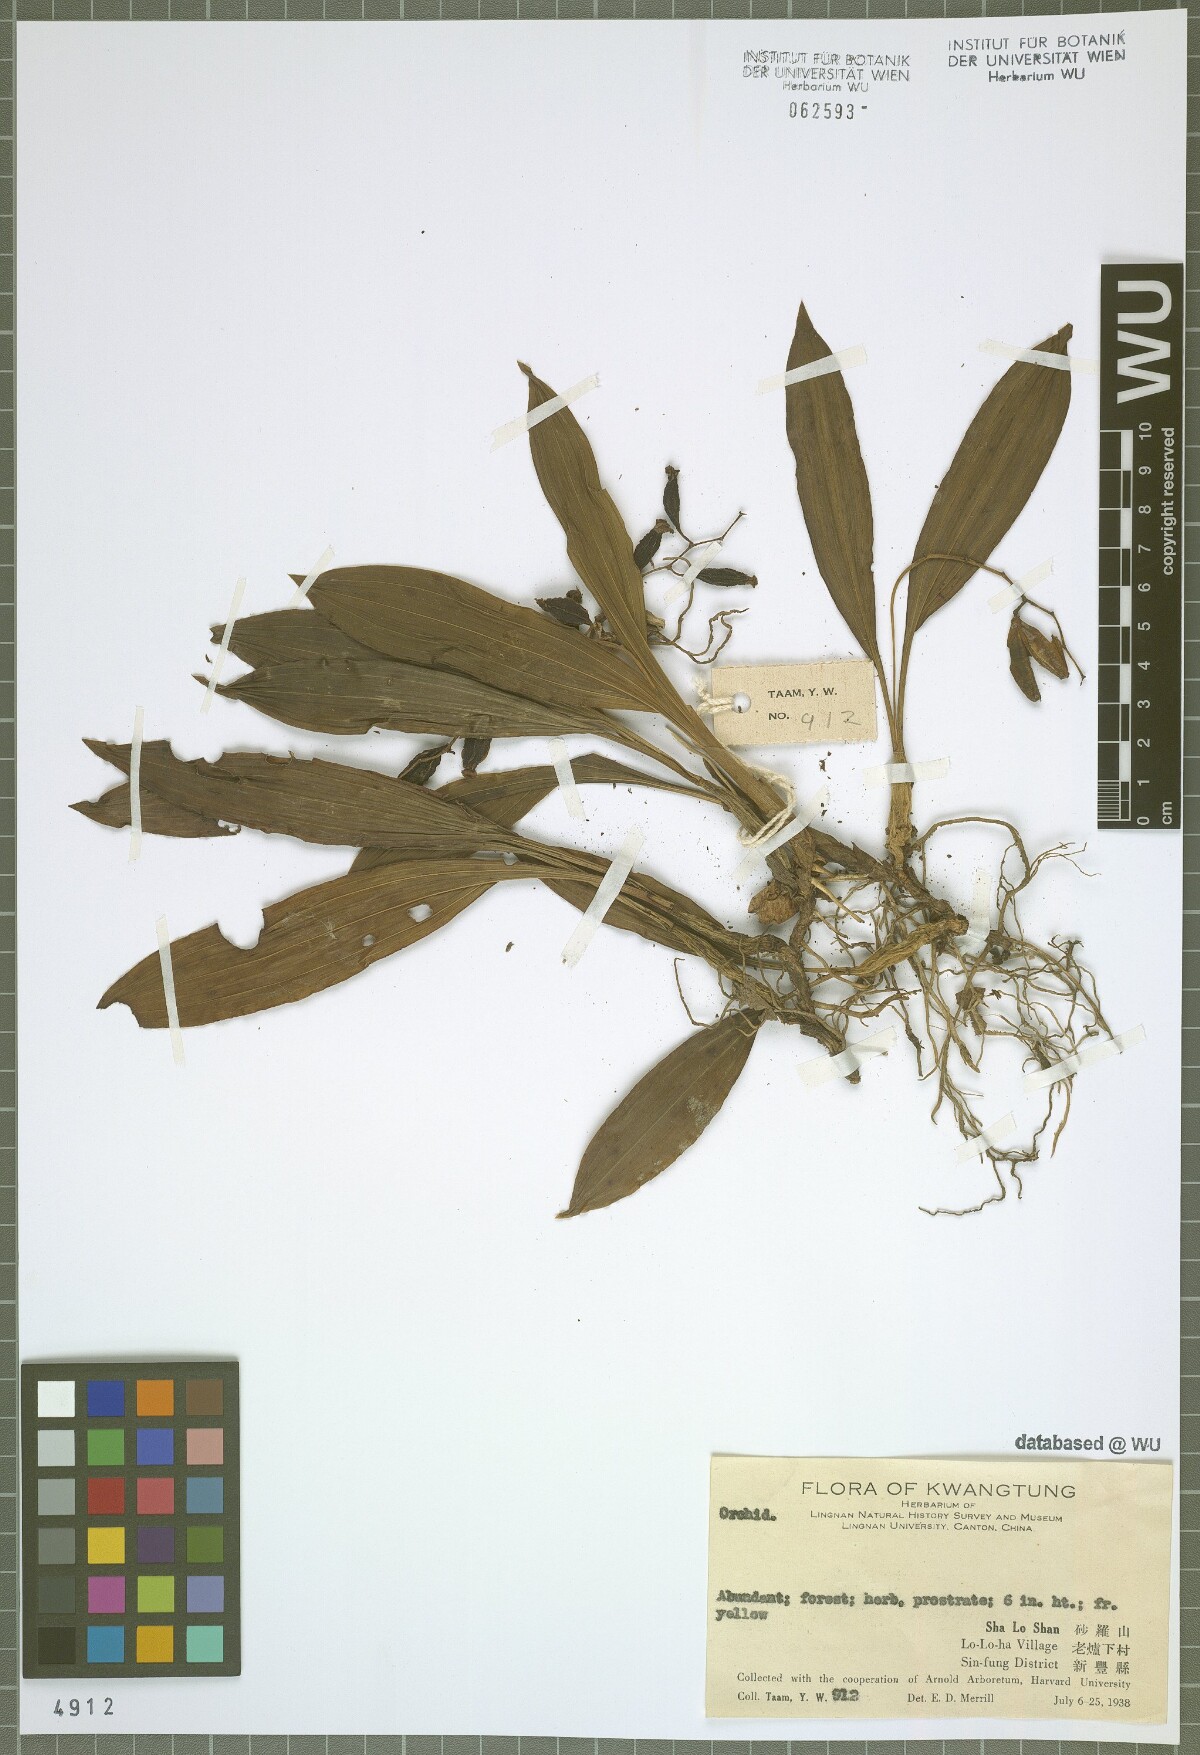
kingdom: Plantae
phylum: Tracheophyta
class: Liliopsida
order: Asparagales
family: Orchidaceae
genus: Coelogyne
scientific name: Coelogyne chinensis
